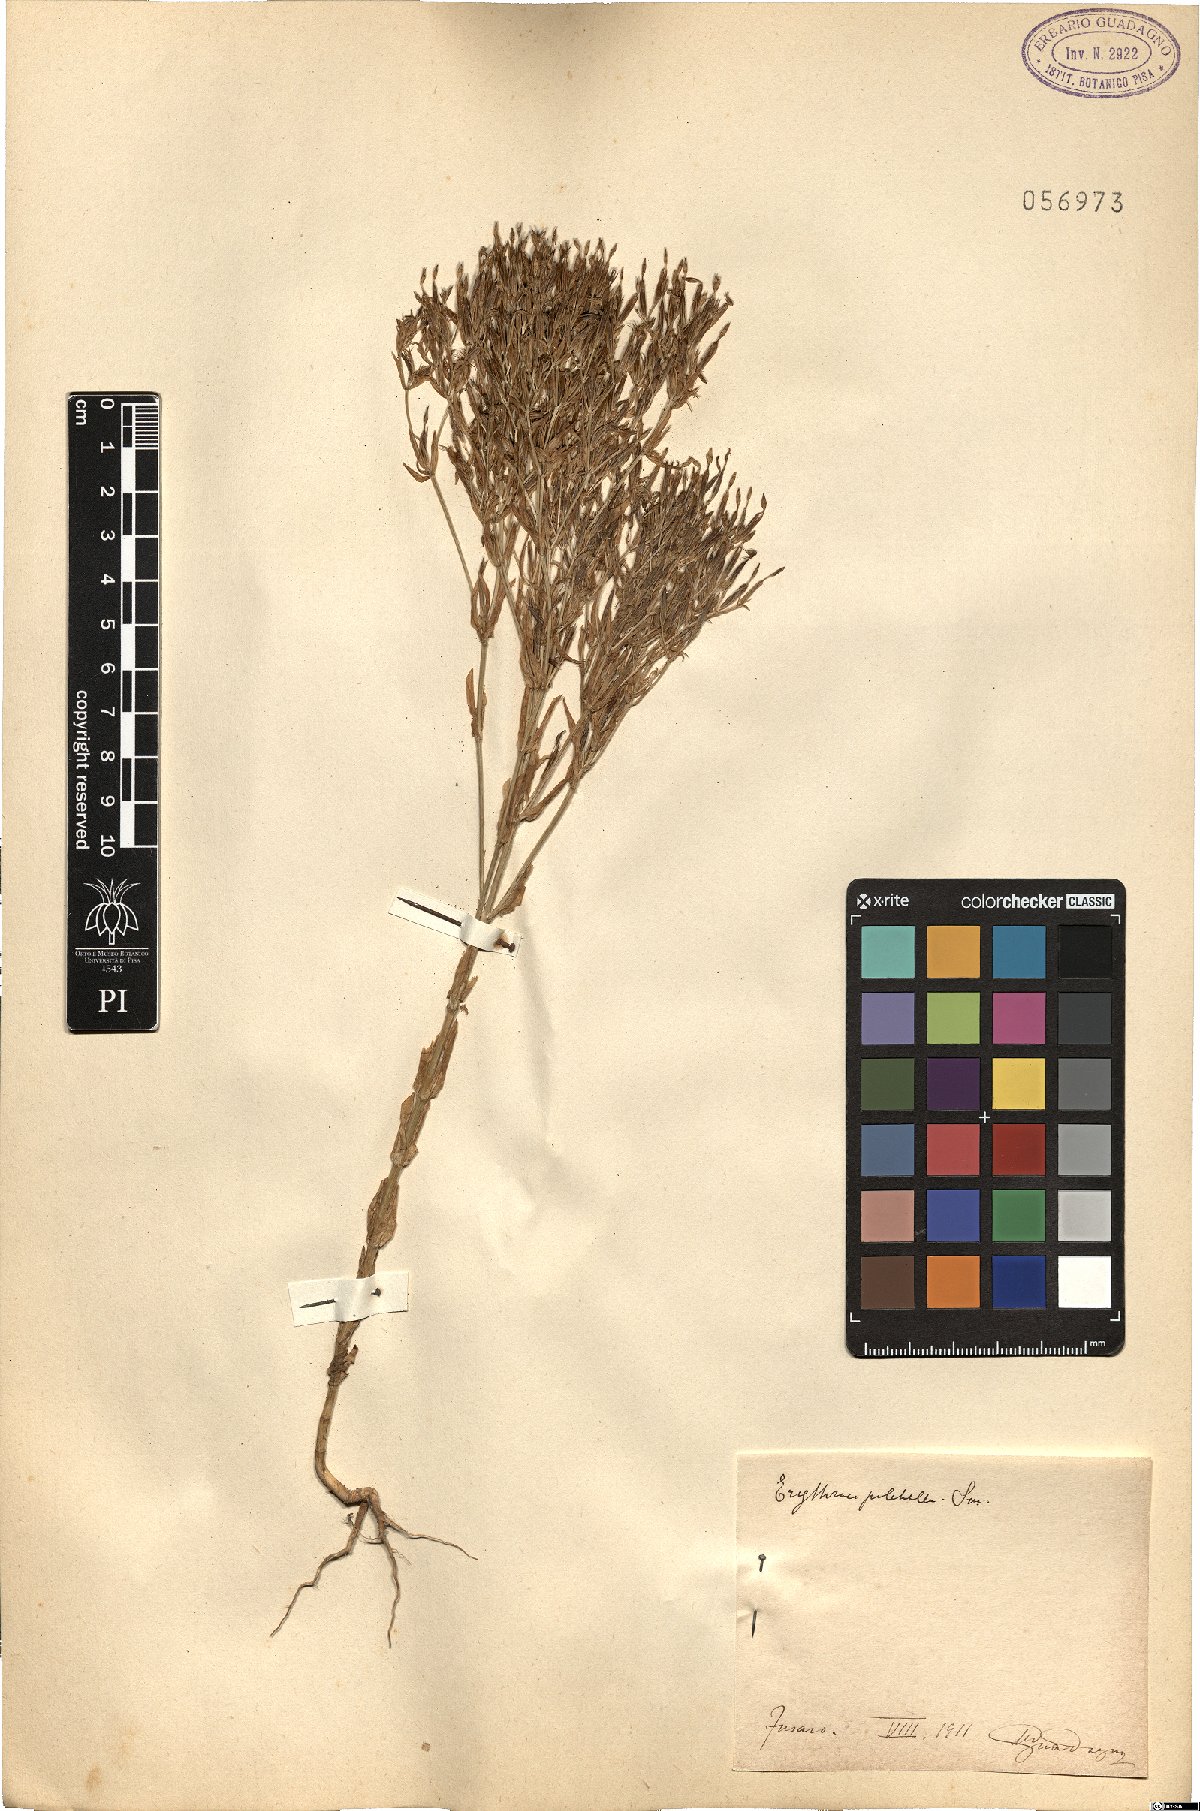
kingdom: Plantae
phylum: Tracheophyta
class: Magnoliopsida
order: Gentianales
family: Gentianaceae
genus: Centaurium
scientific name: Centaurium pulchellum
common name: Lesser centaury
